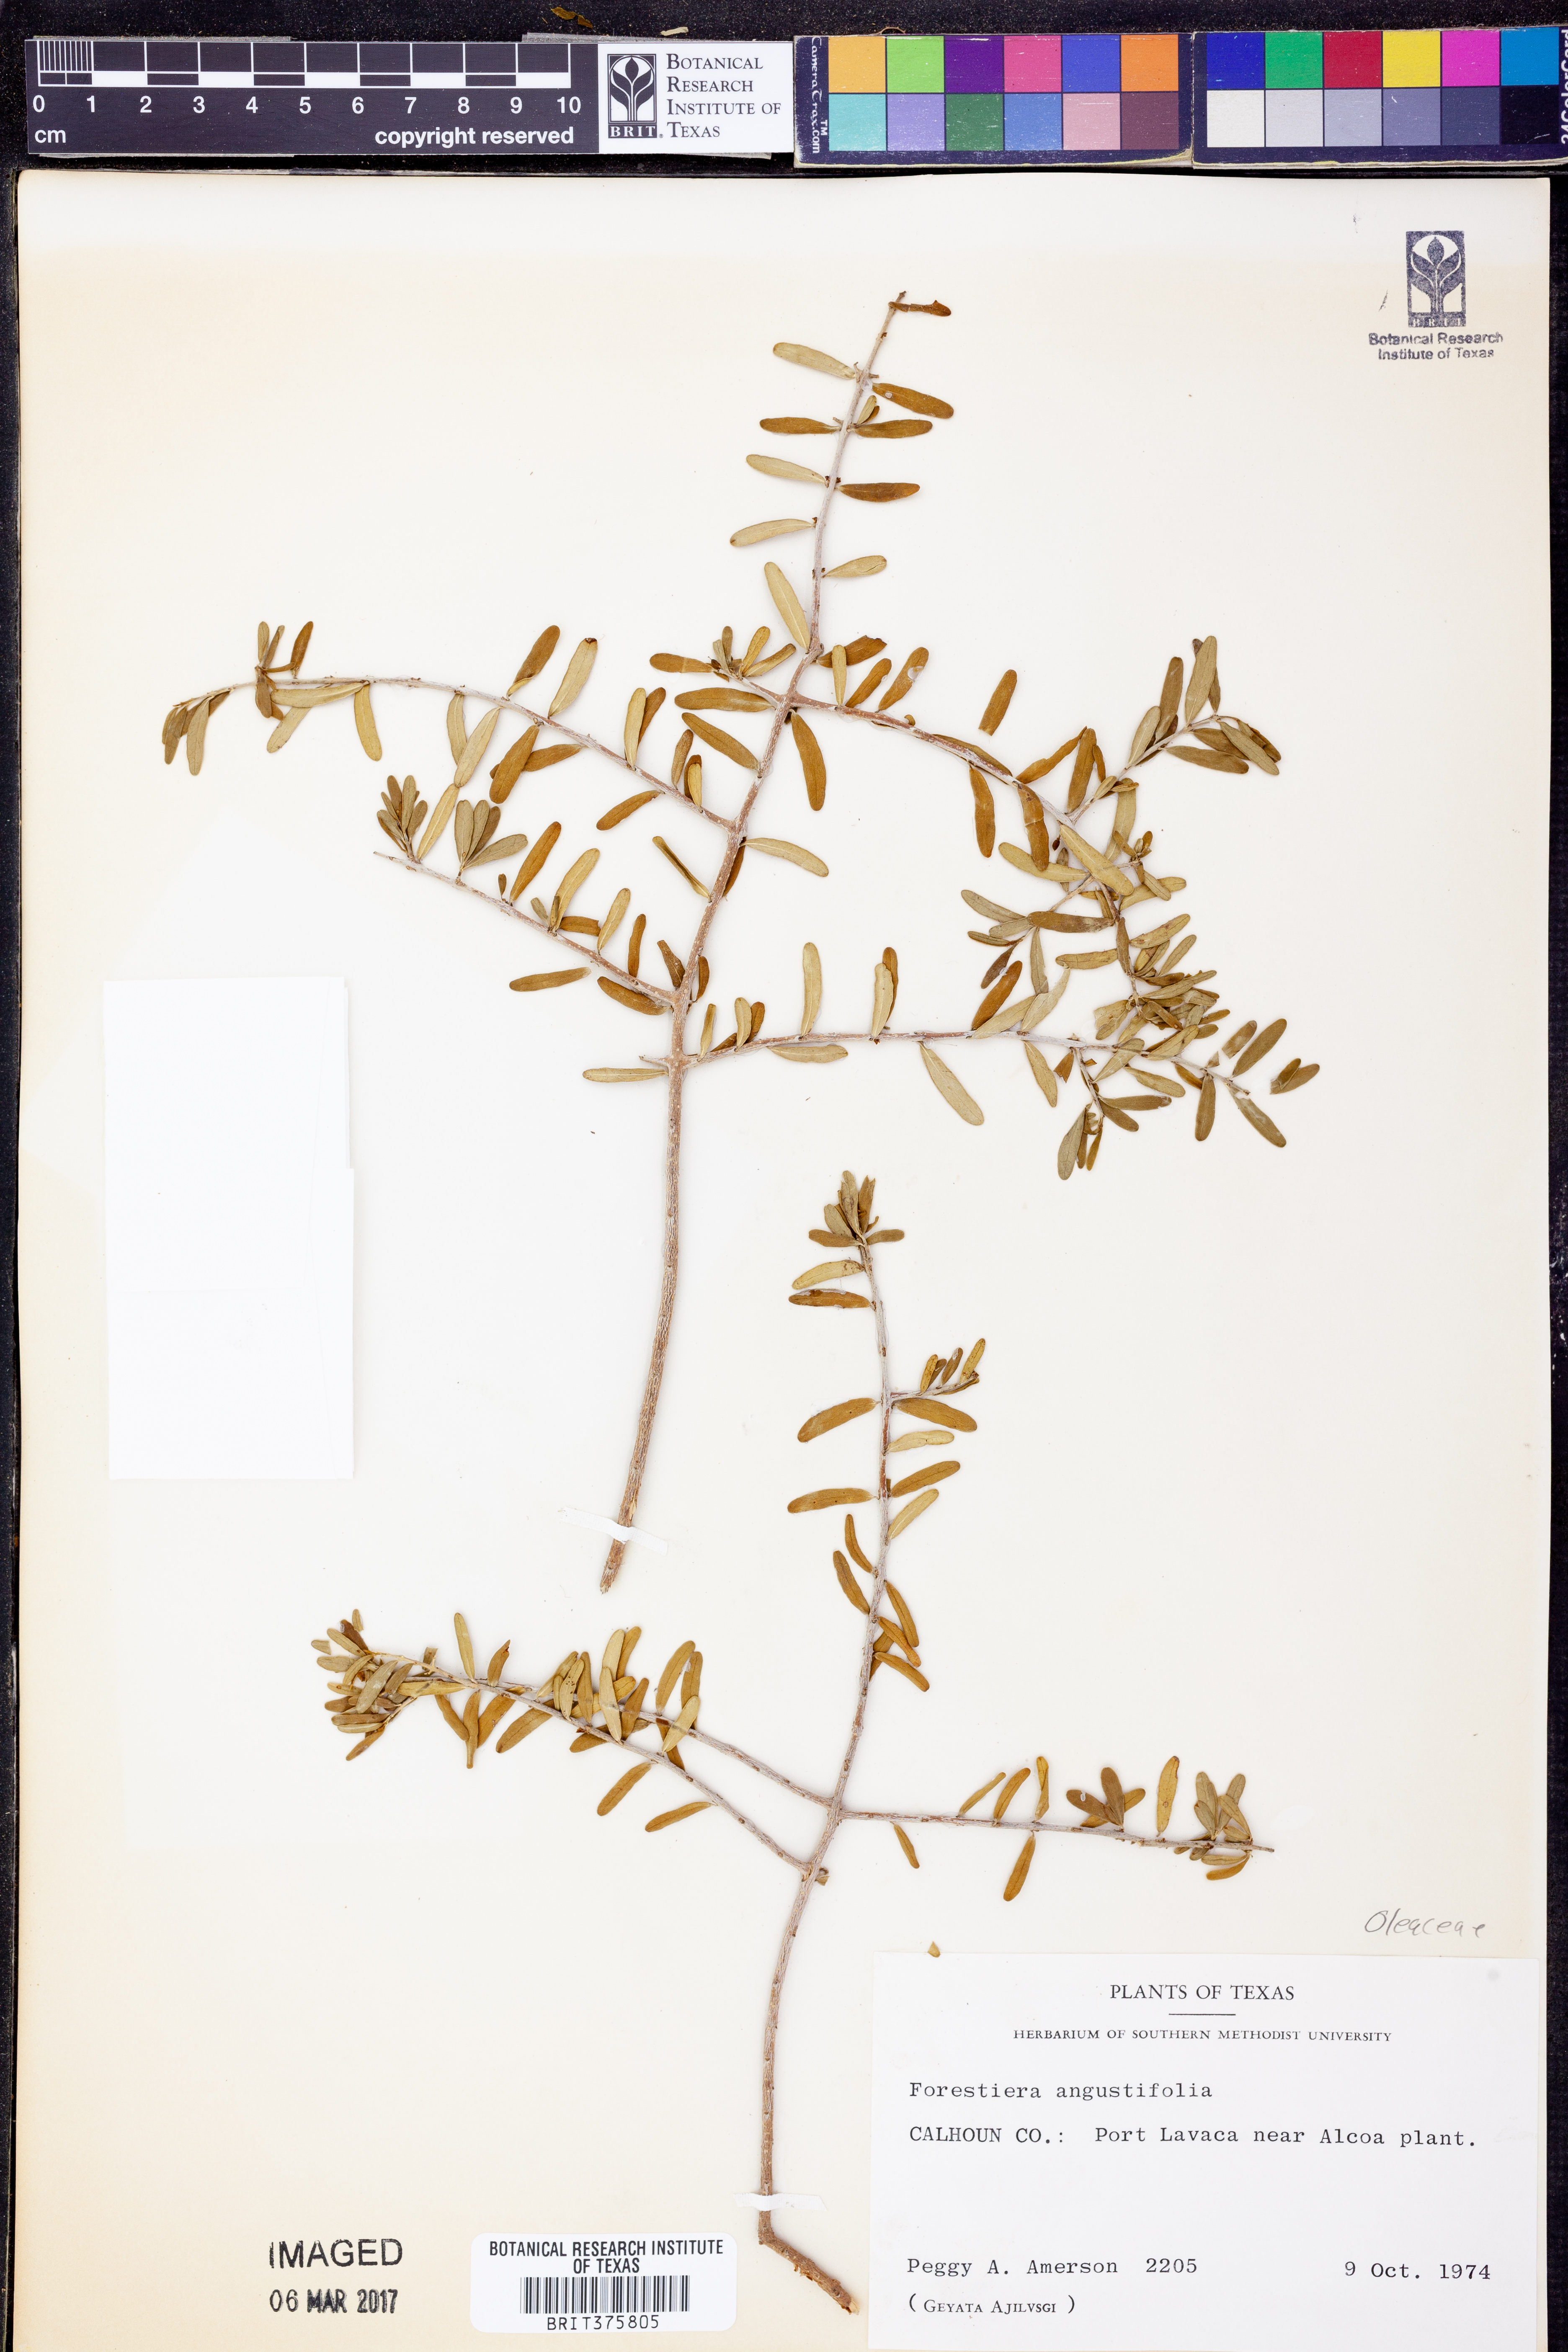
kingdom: Plantae
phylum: Tracheophyta
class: Magnoliopsida
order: Lamiales
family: Oleaceae
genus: Forestiera
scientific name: Forestiera angustifolia
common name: Elbowbush
